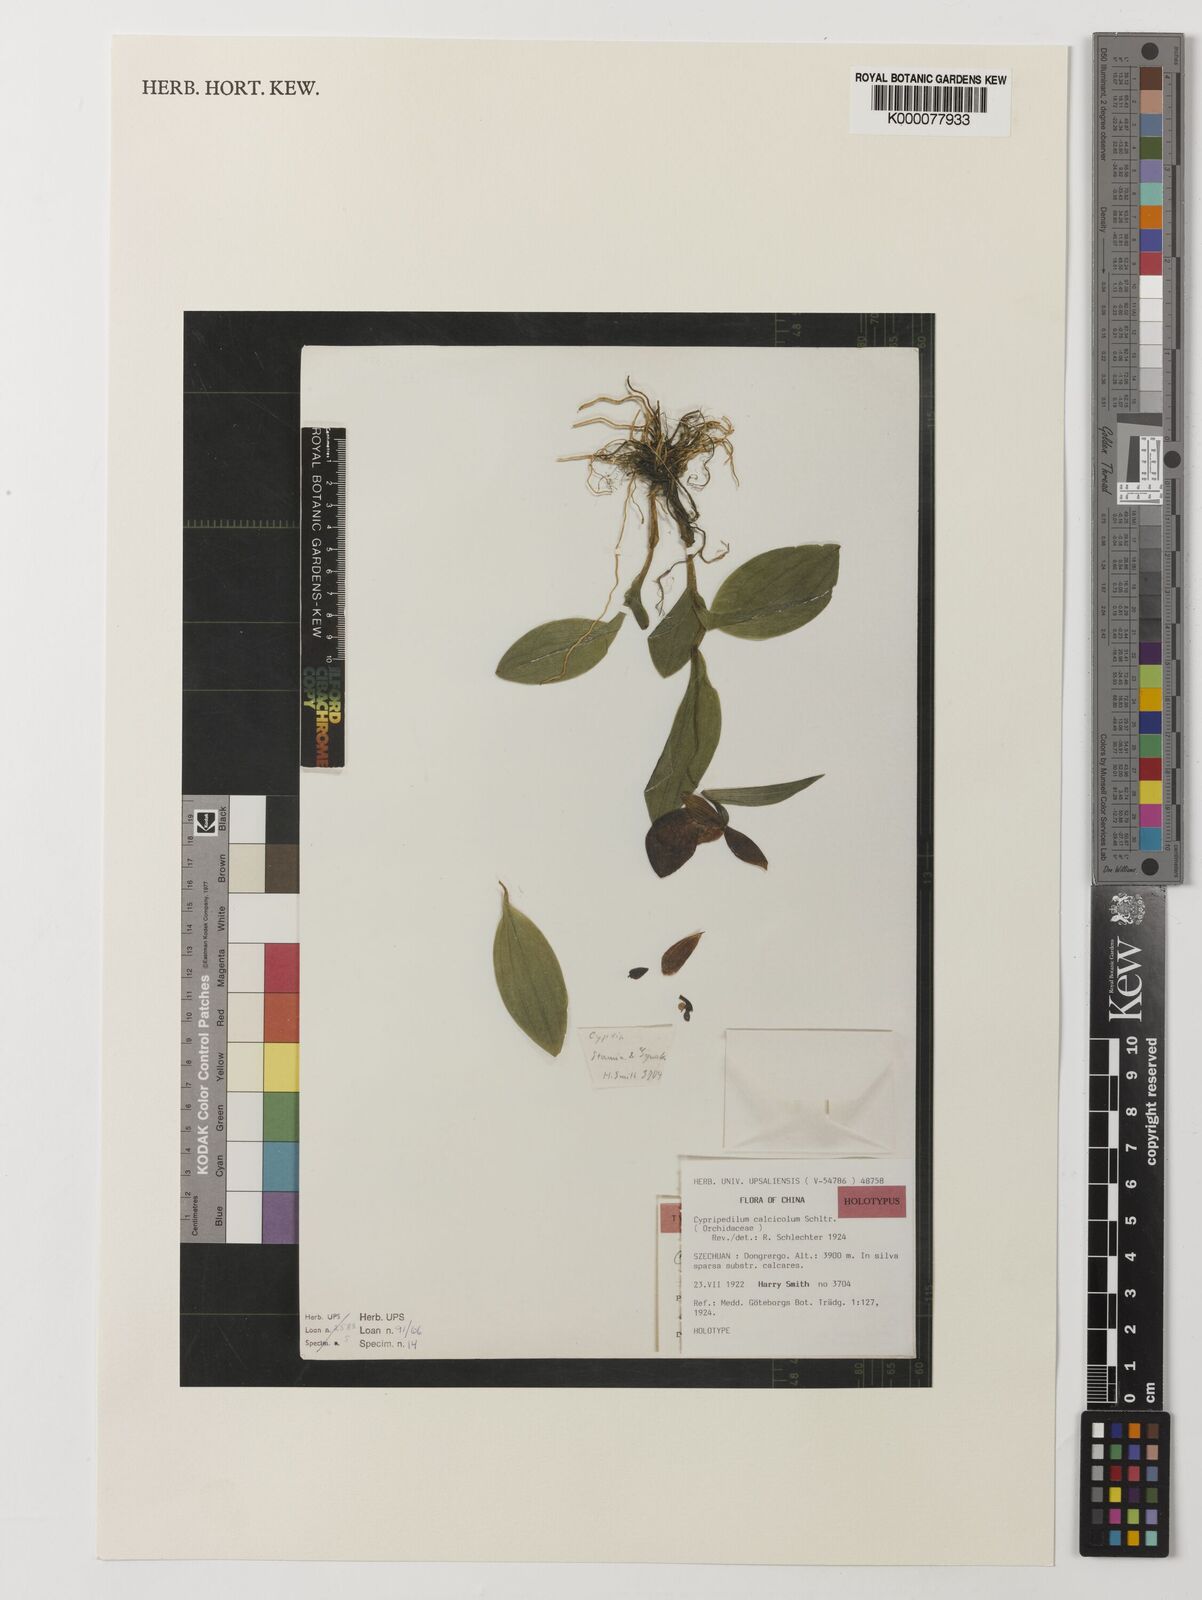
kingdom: Plantae
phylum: Tracheophyta
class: Liliopsida
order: Asparagales
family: Orchidaceae
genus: Cypripedium
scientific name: Cypripedium calcicola
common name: Lime loving cypripedium
